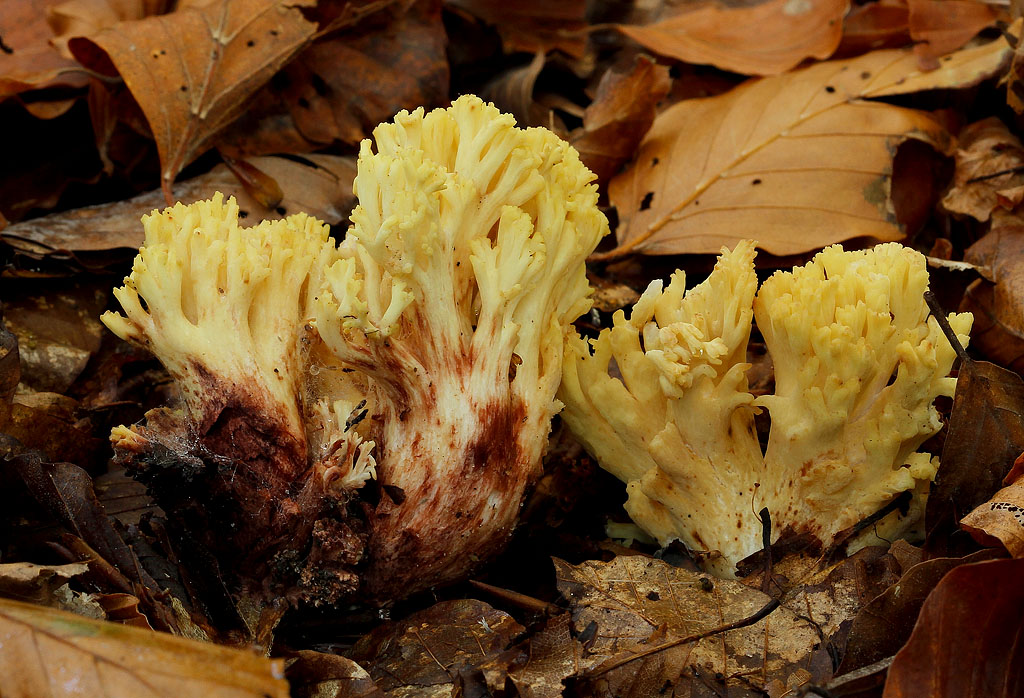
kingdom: Fungi
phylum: Basidiomycota
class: Agaricomycetes
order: Gomphales
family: Gomphaceae
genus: Ramaria
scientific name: Ramaria sanguinea
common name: blodplettet koralsvamp
